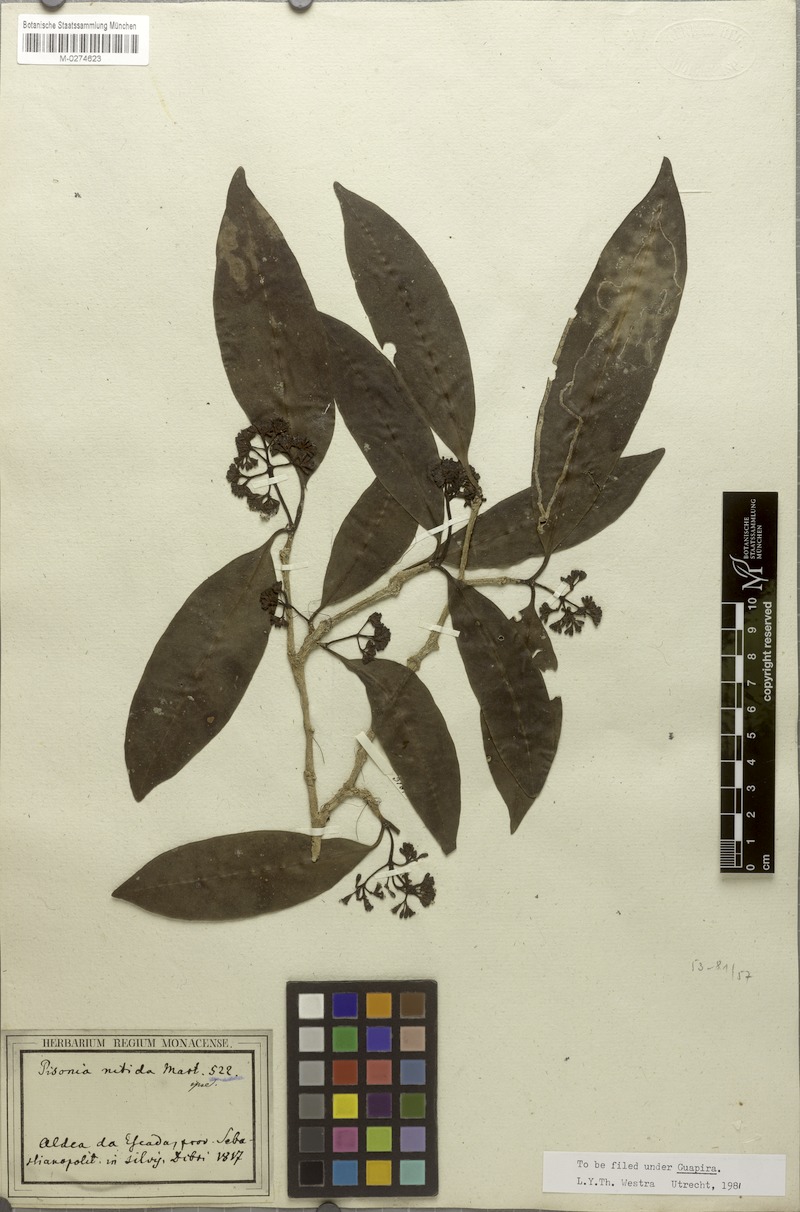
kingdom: Plantae
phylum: Tracheophyta
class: Magnoliopsida
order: Caryophyllales
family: Nyctaginaceae
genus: Guapira
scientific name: Guapira opposita
